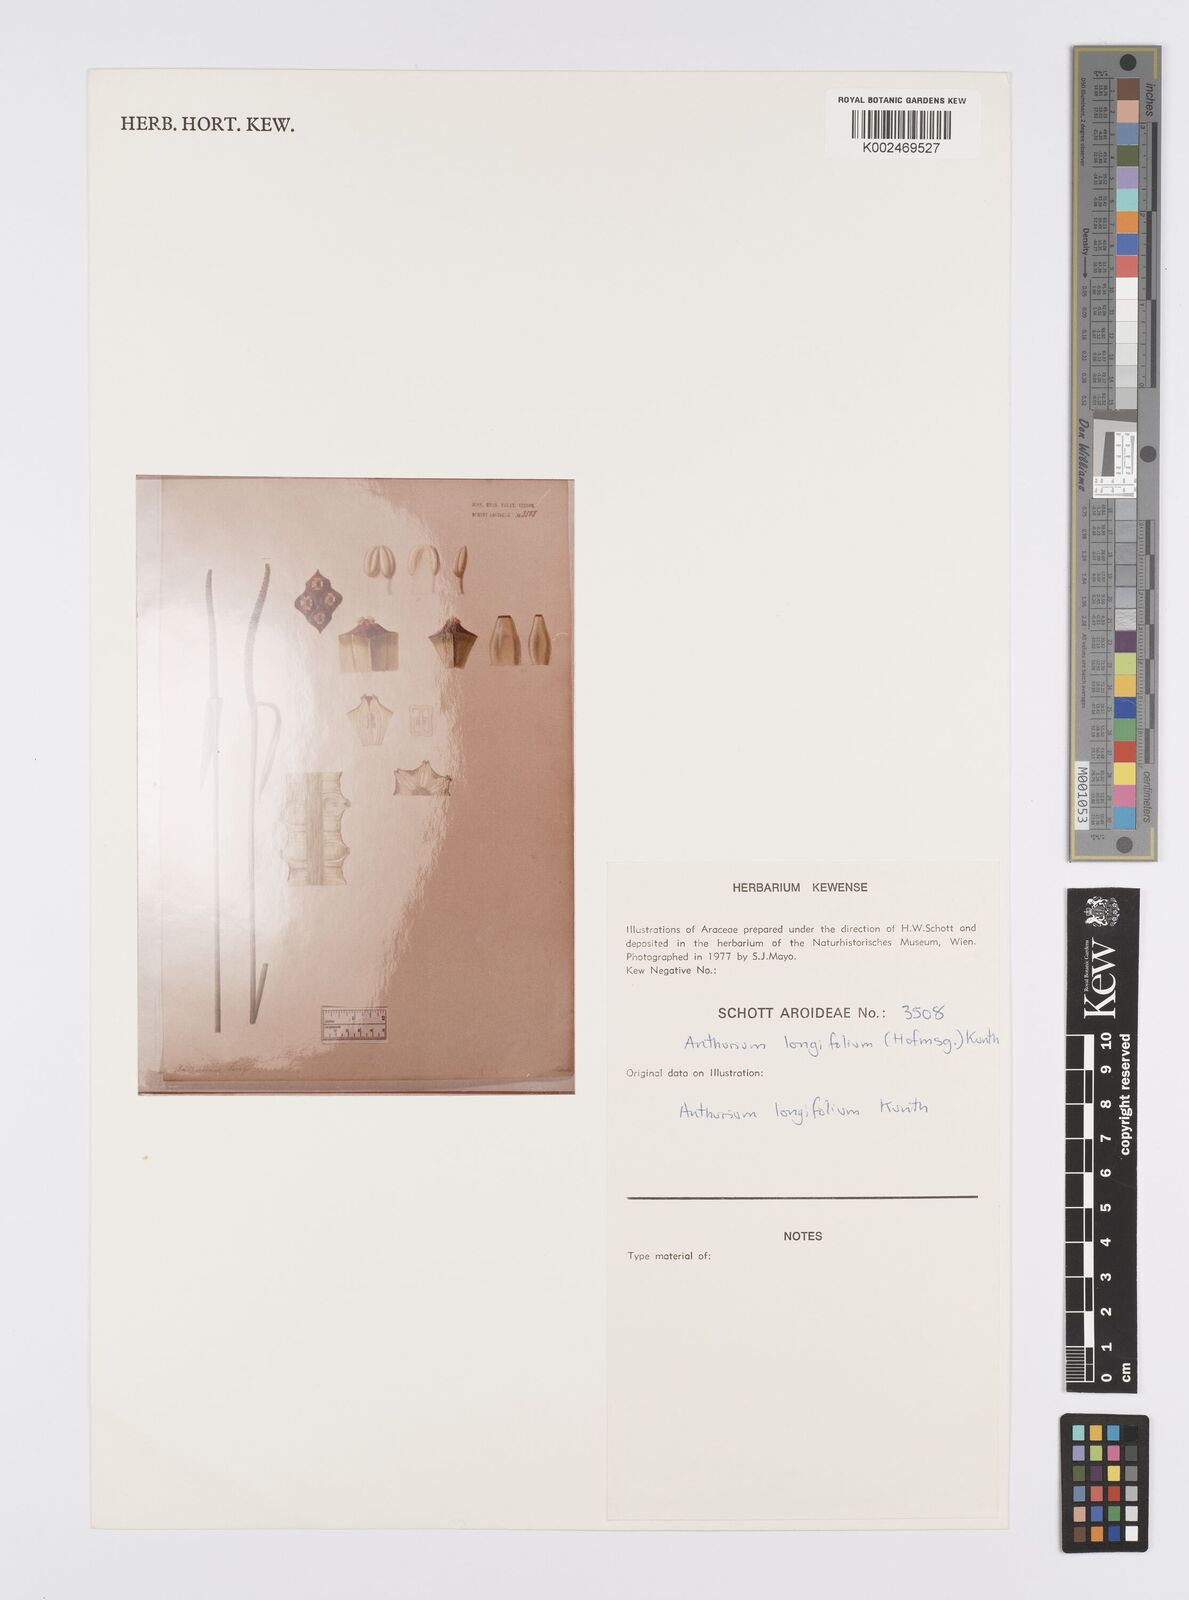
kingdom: Plantae
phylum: Tracheophyta
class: Liliopsida
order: Alismatales
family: Araceae
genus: Anthurium
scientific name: Anthurium longifolium
